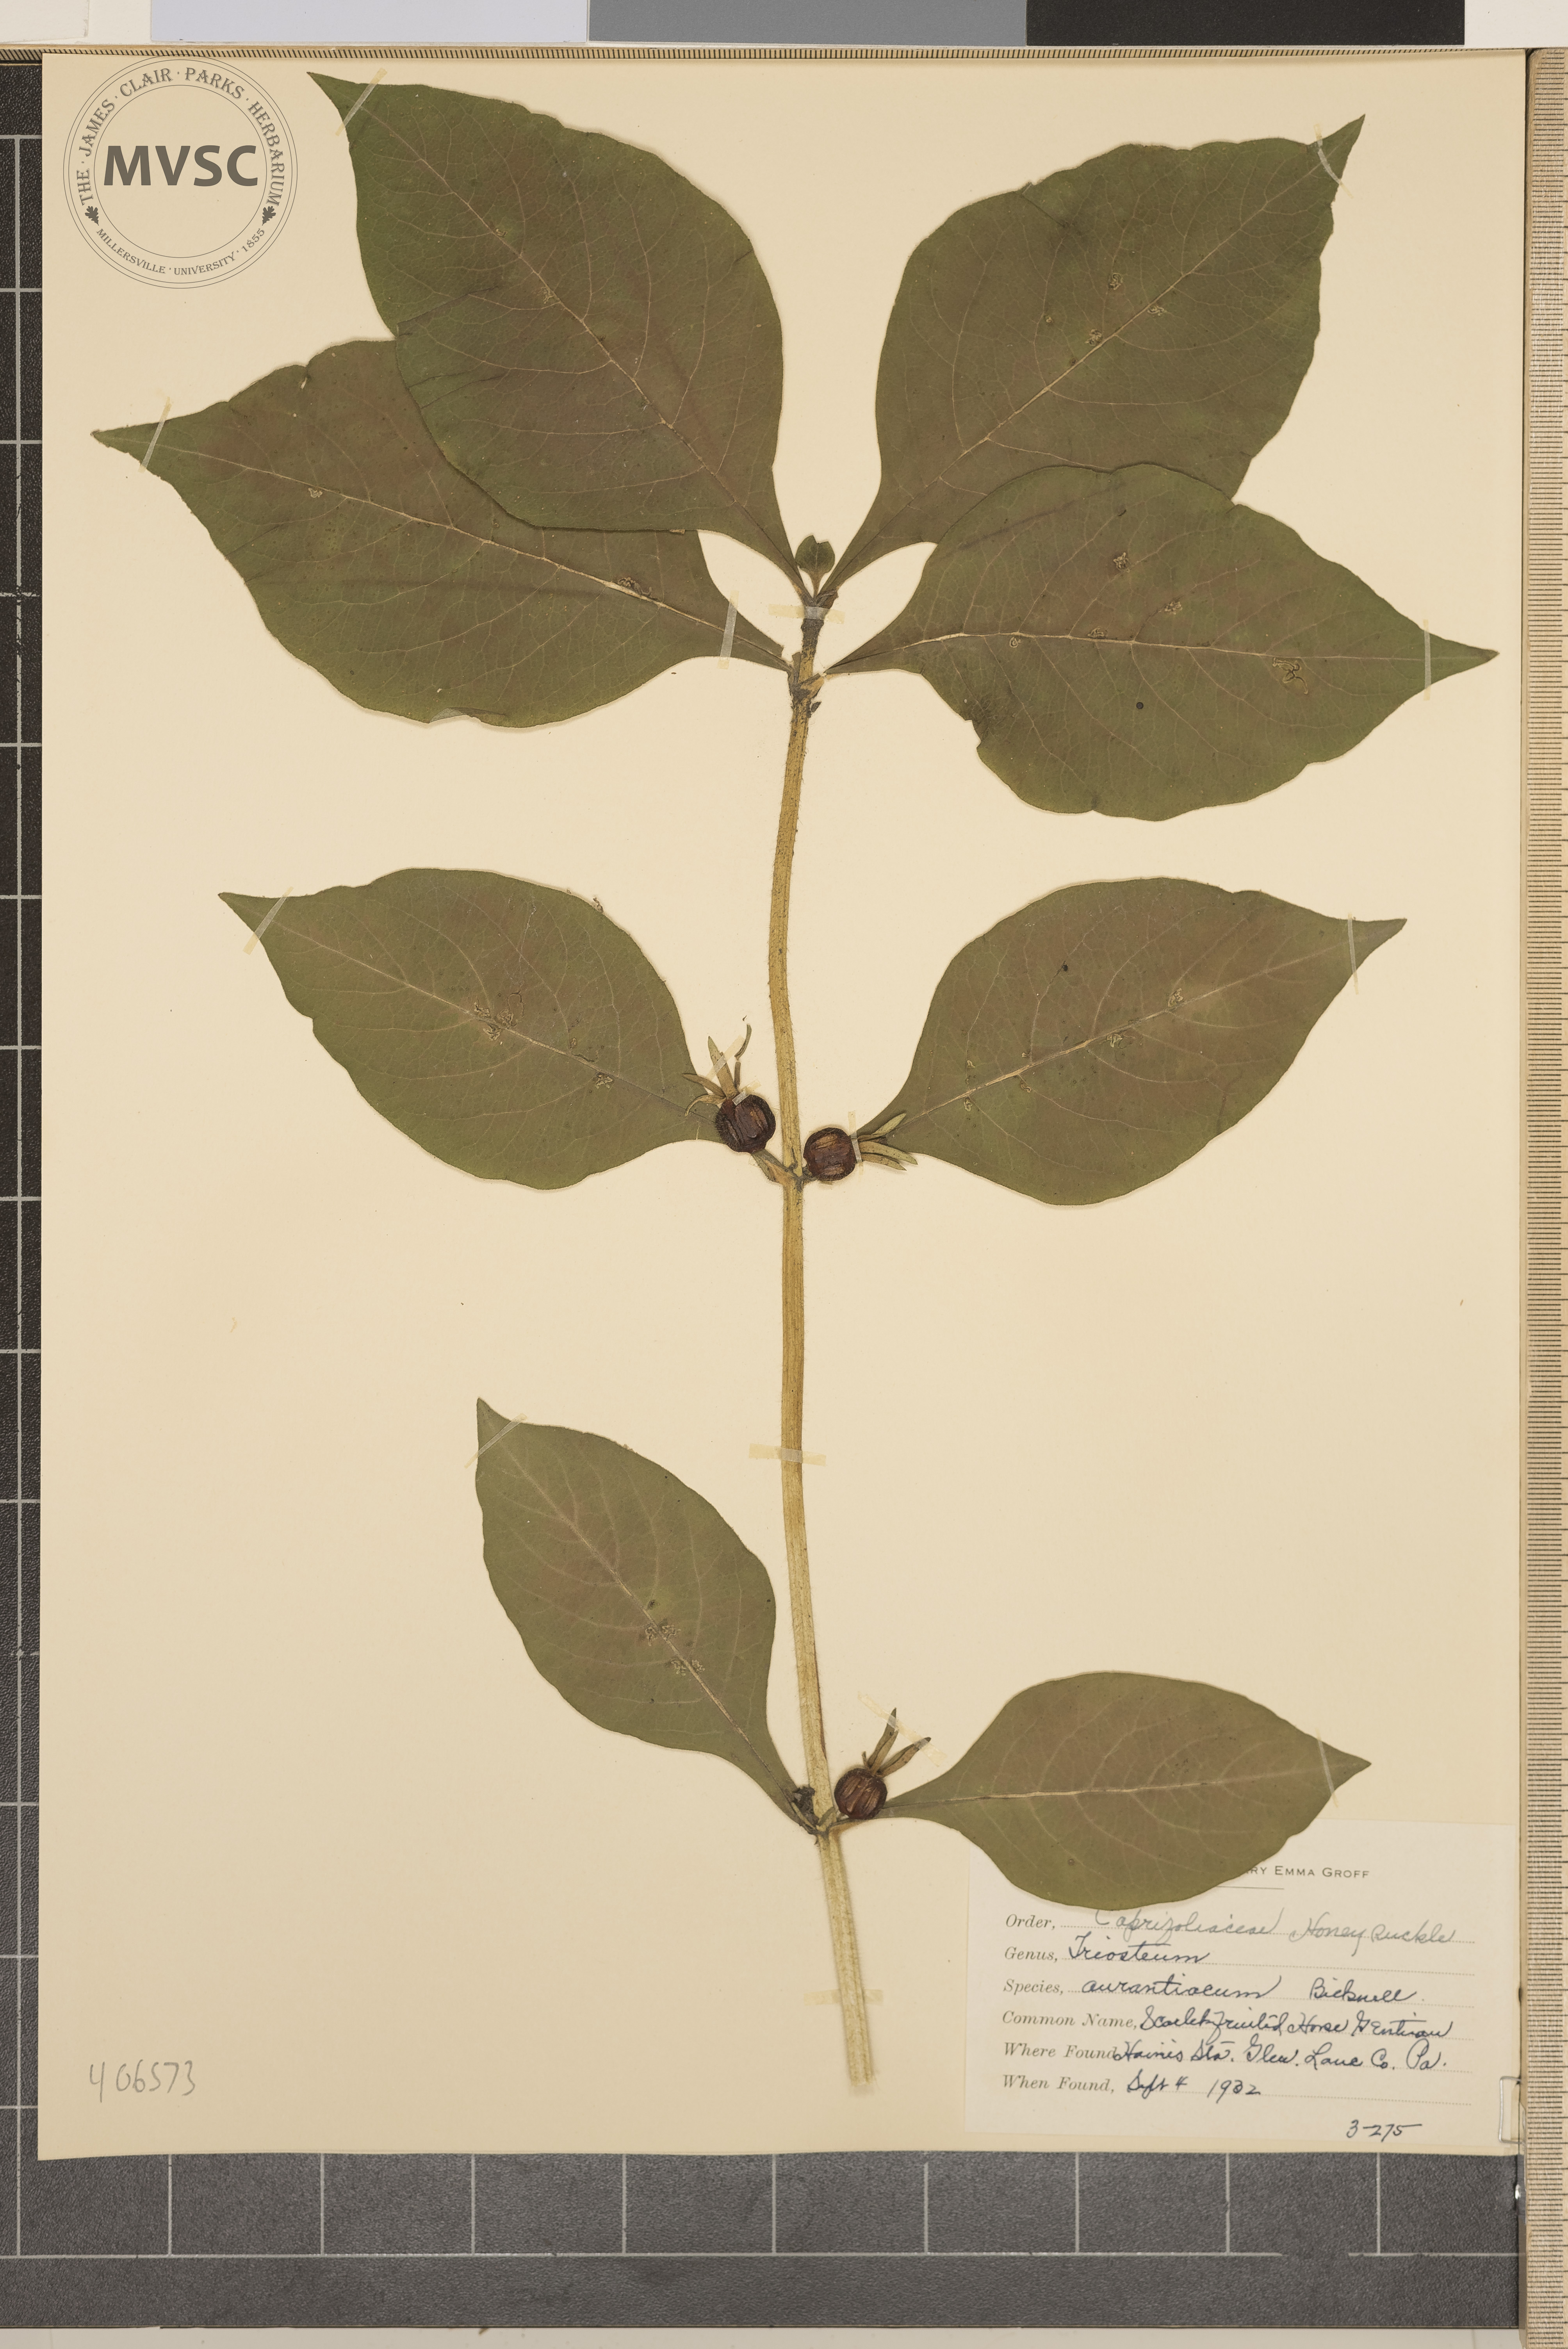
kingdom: Plantae
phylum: Tracheophyta
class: Magnoliopsida
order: Dipsacales
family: Caprifoliaceae
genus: Triosteum
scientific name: Triosteum aurantiacum
